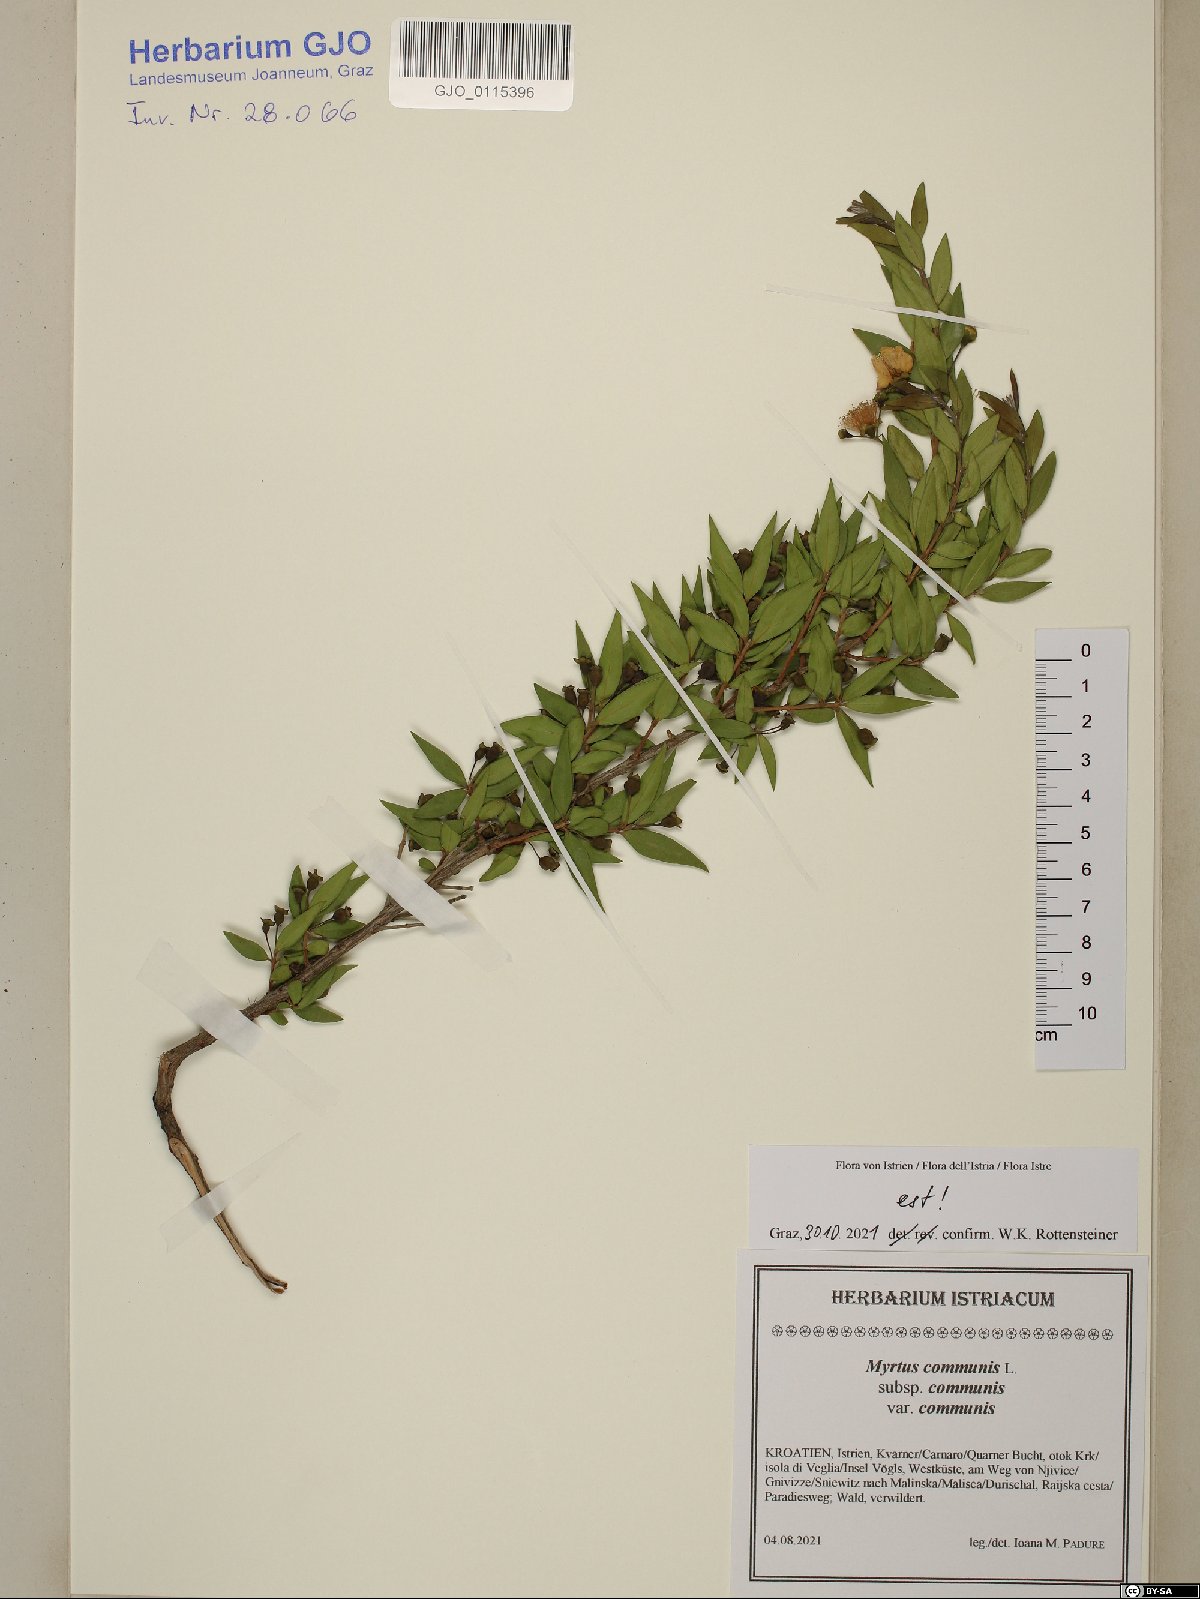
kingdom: Plantae
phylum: Tracheophyta
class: Magnoliopsida
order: Myrtales
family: Myrtaceae
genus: Myrtus
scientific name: Myrtus communis
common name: Myrtle
